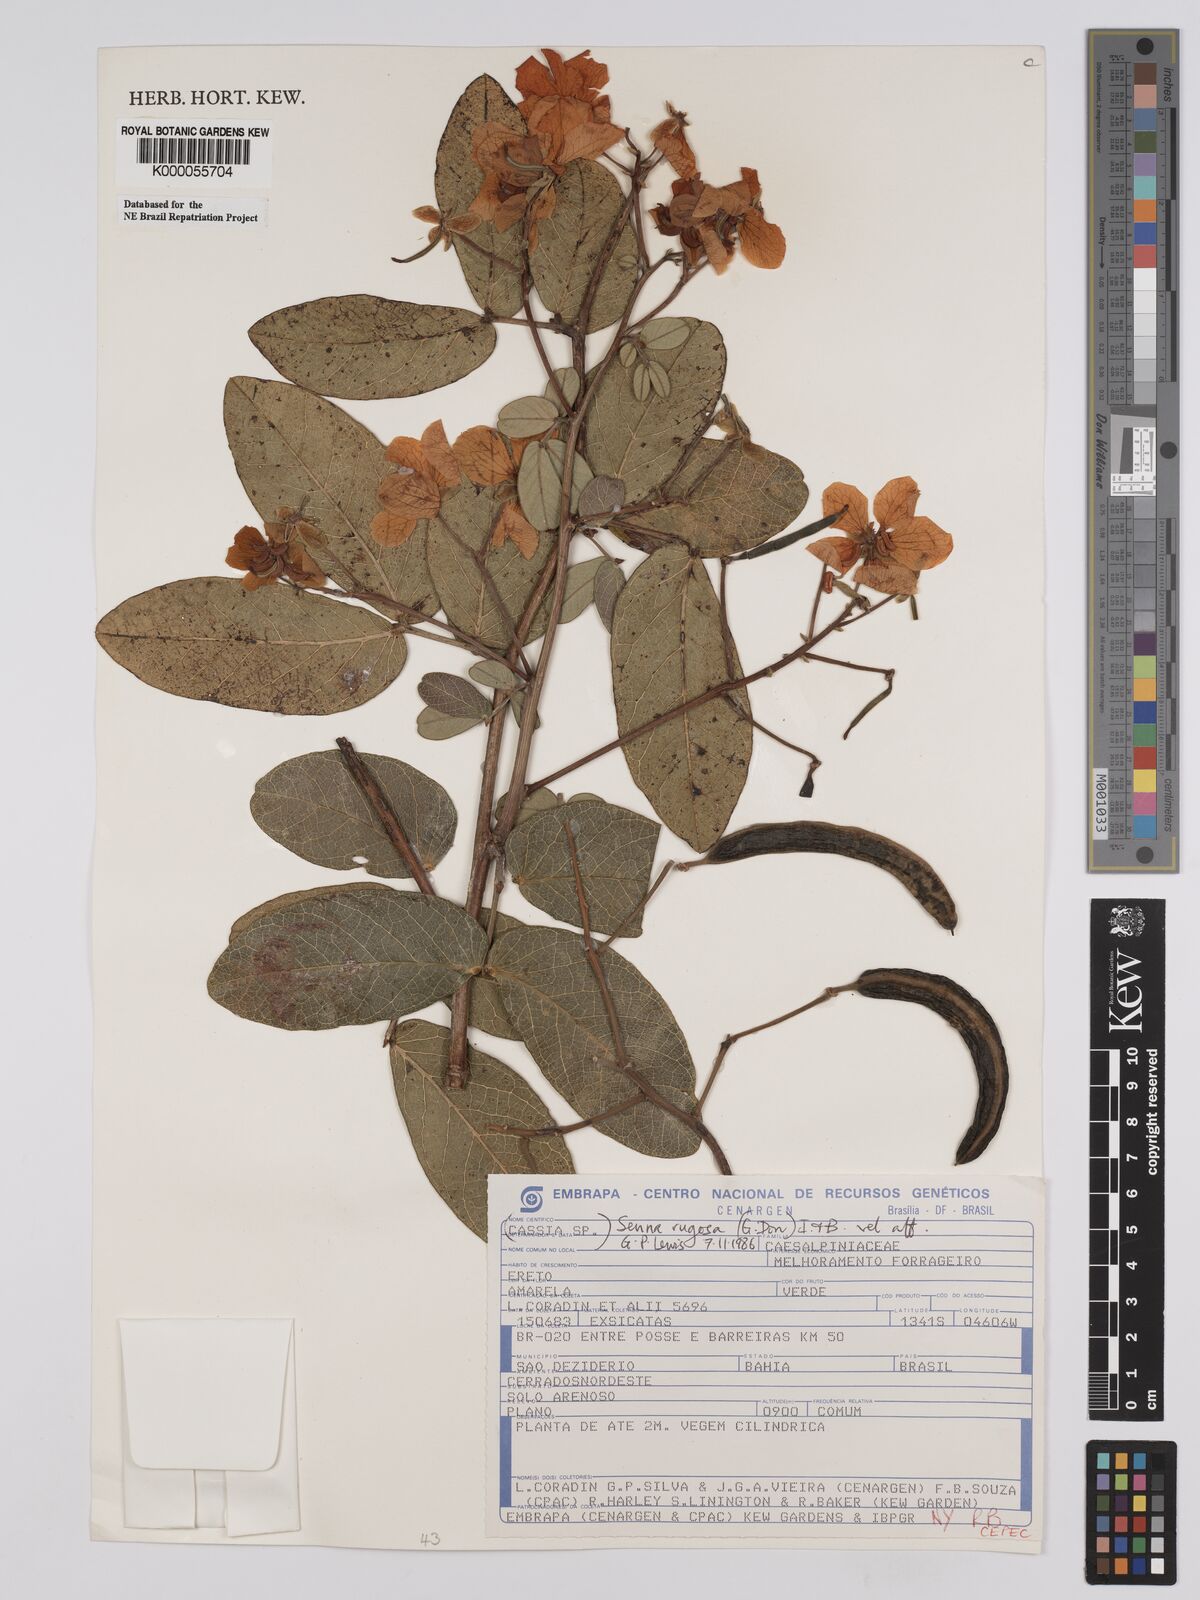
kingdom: Plantae
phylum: Tracheophyta
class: Magnoliopsida
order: Fabales
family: Fabaceae
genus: Senna
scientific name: Senna rugosa
